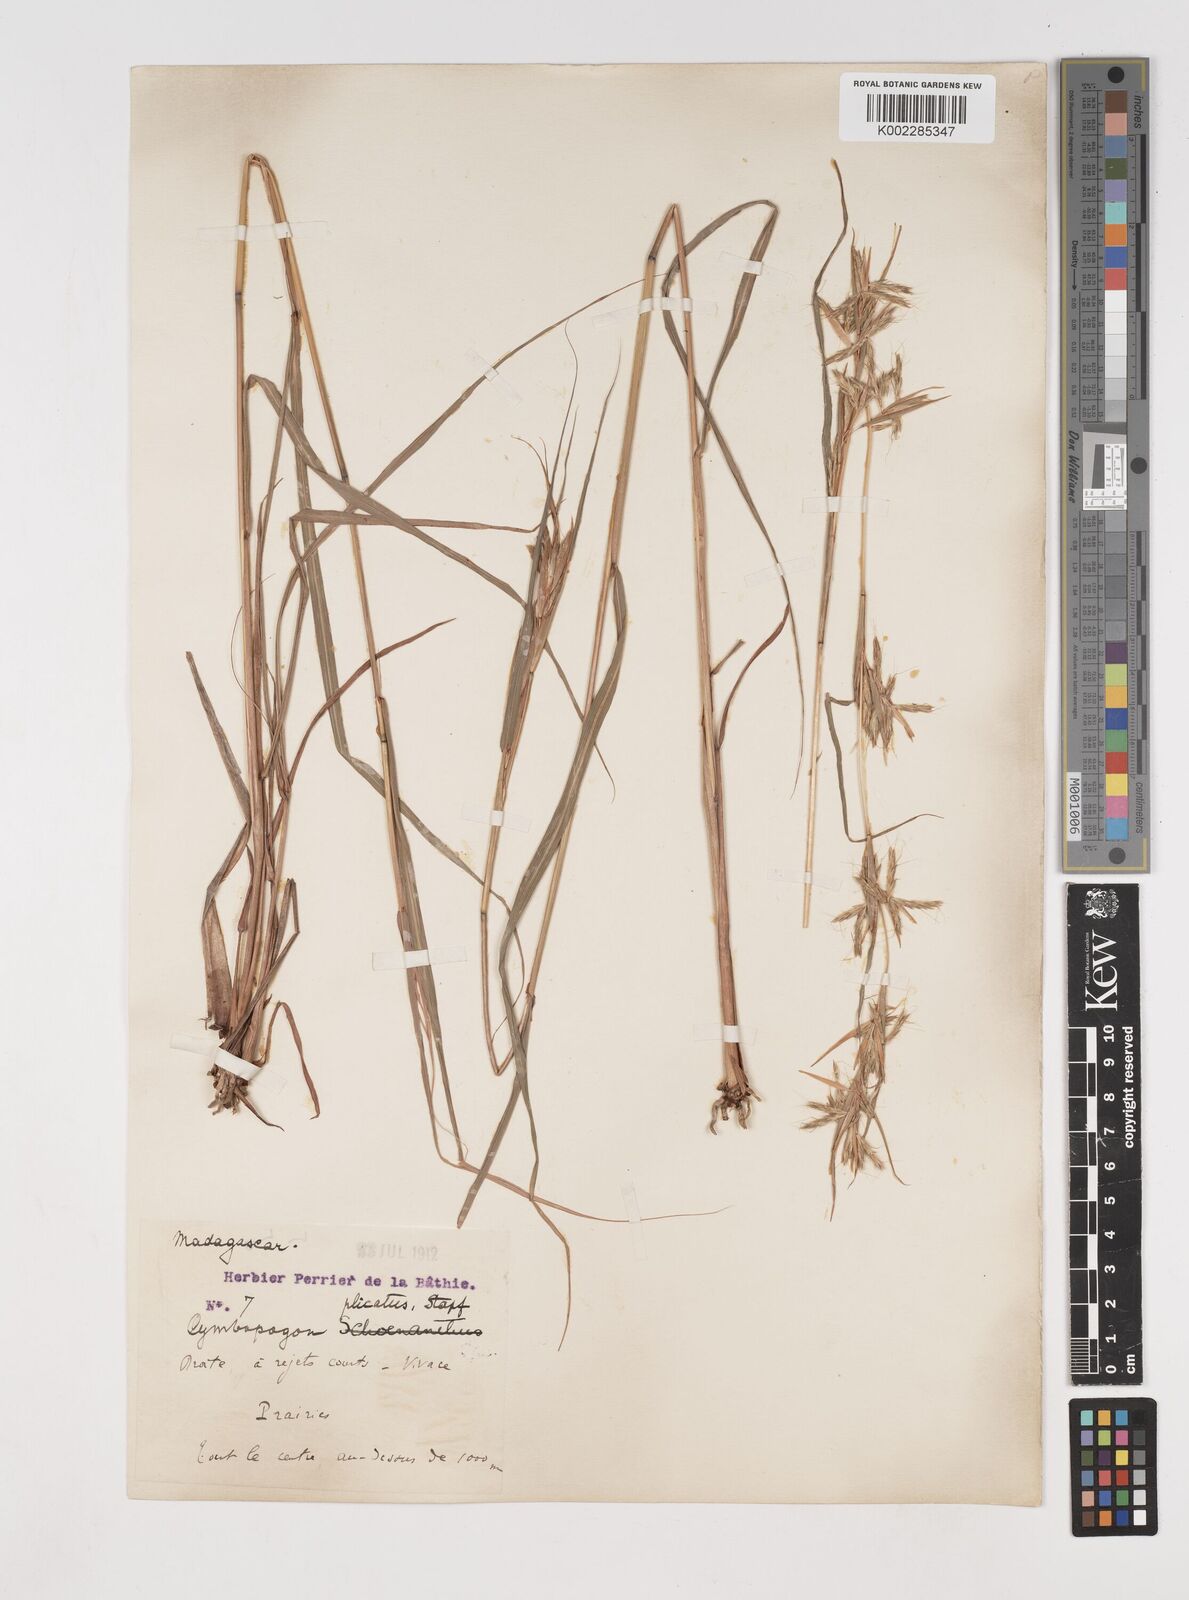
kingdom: Plantae
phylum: Tracheophyta
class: Liliopsida
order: Poales
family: Poaceae
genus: Cymbopogon
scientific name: Cymbopogon caesius
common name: Kachi grass
